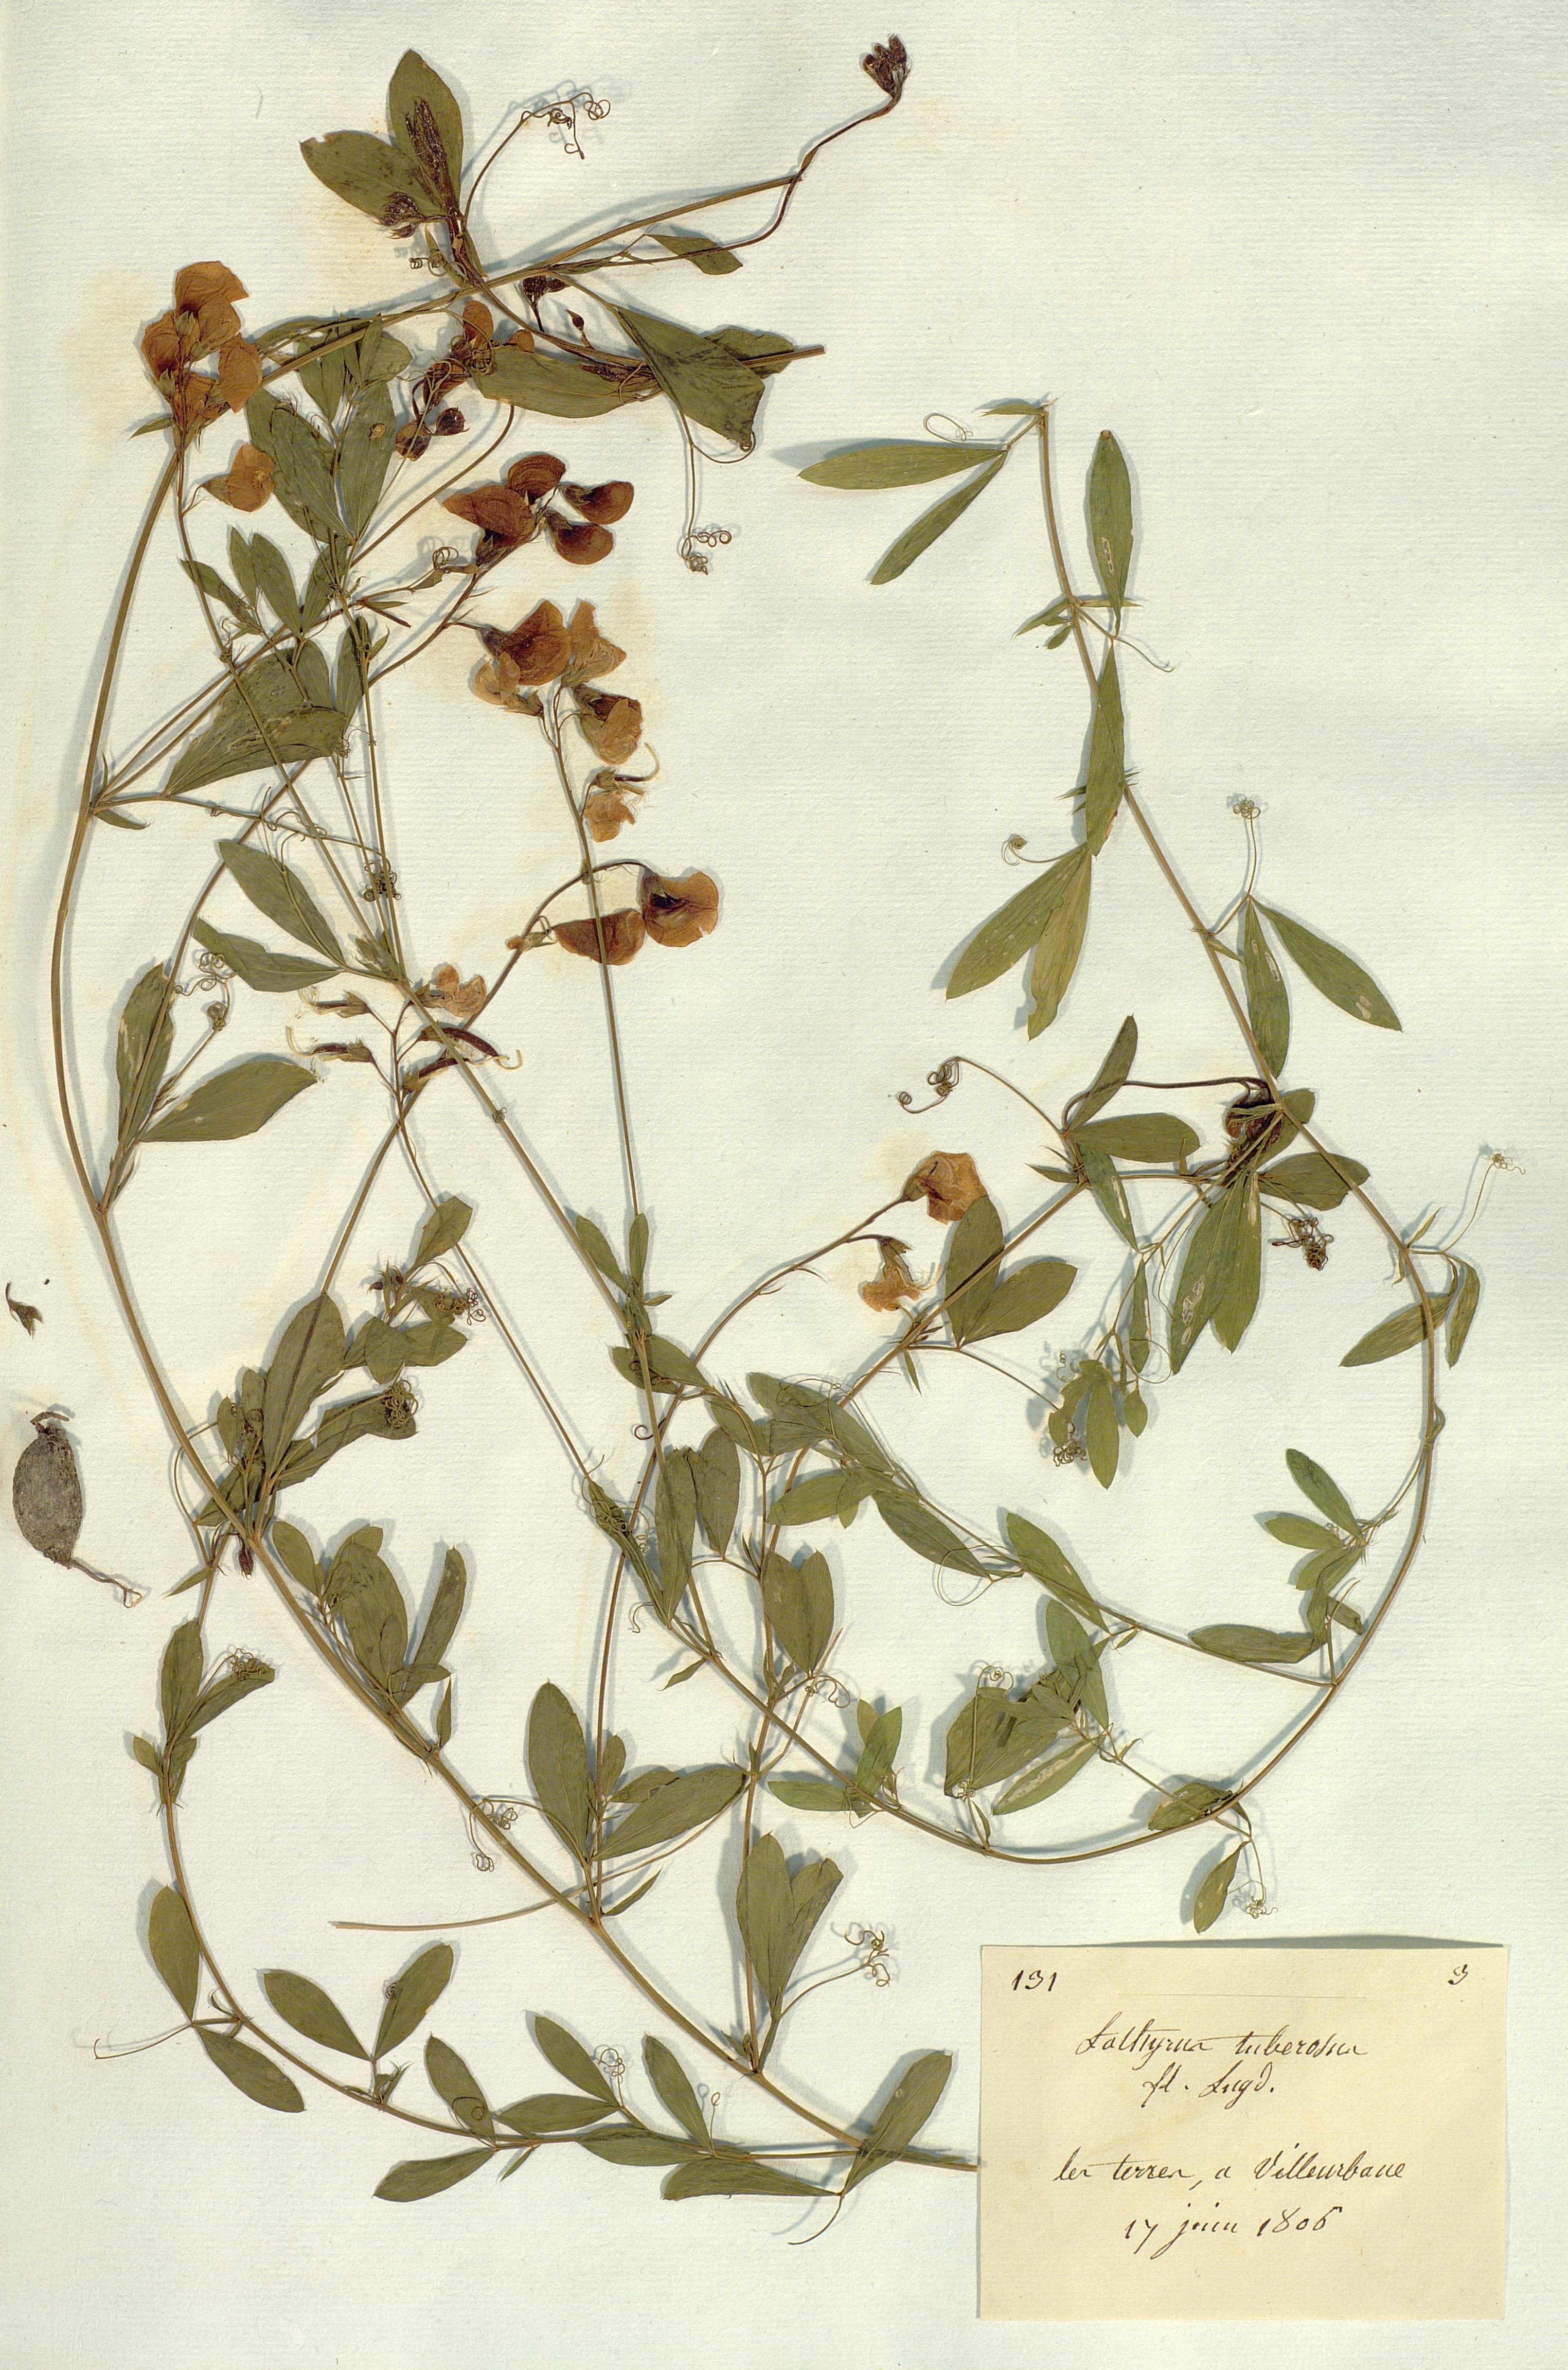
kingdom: Plantae
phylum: Tracheophyta
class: Magnoliopsida
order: Fabales
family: Fabaceae
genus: Lathyrus
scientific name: Lathyrus tuberosus
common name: Tuberous pea
